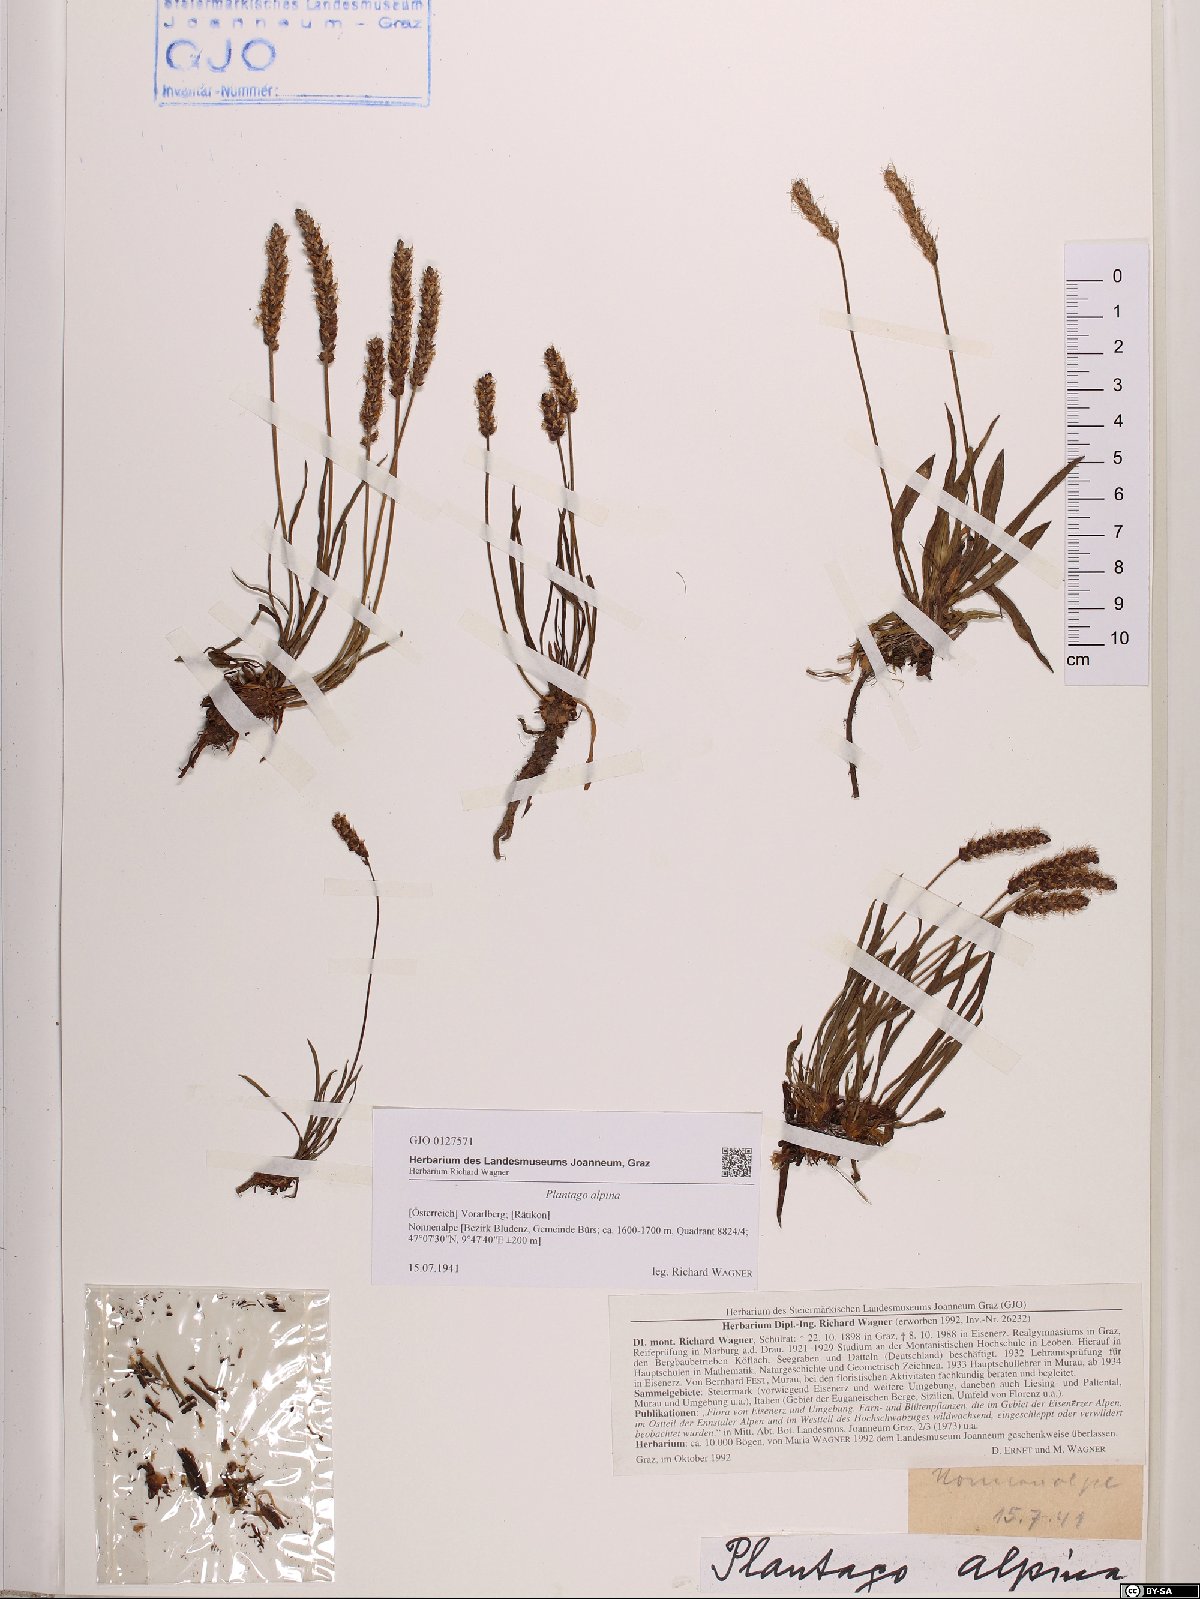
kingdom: Plantae
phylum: Tracheophyta
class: Magnoliopsida
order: Lamiales
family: Plantaginaceae
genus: Plantago
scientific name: Plantago alpina
